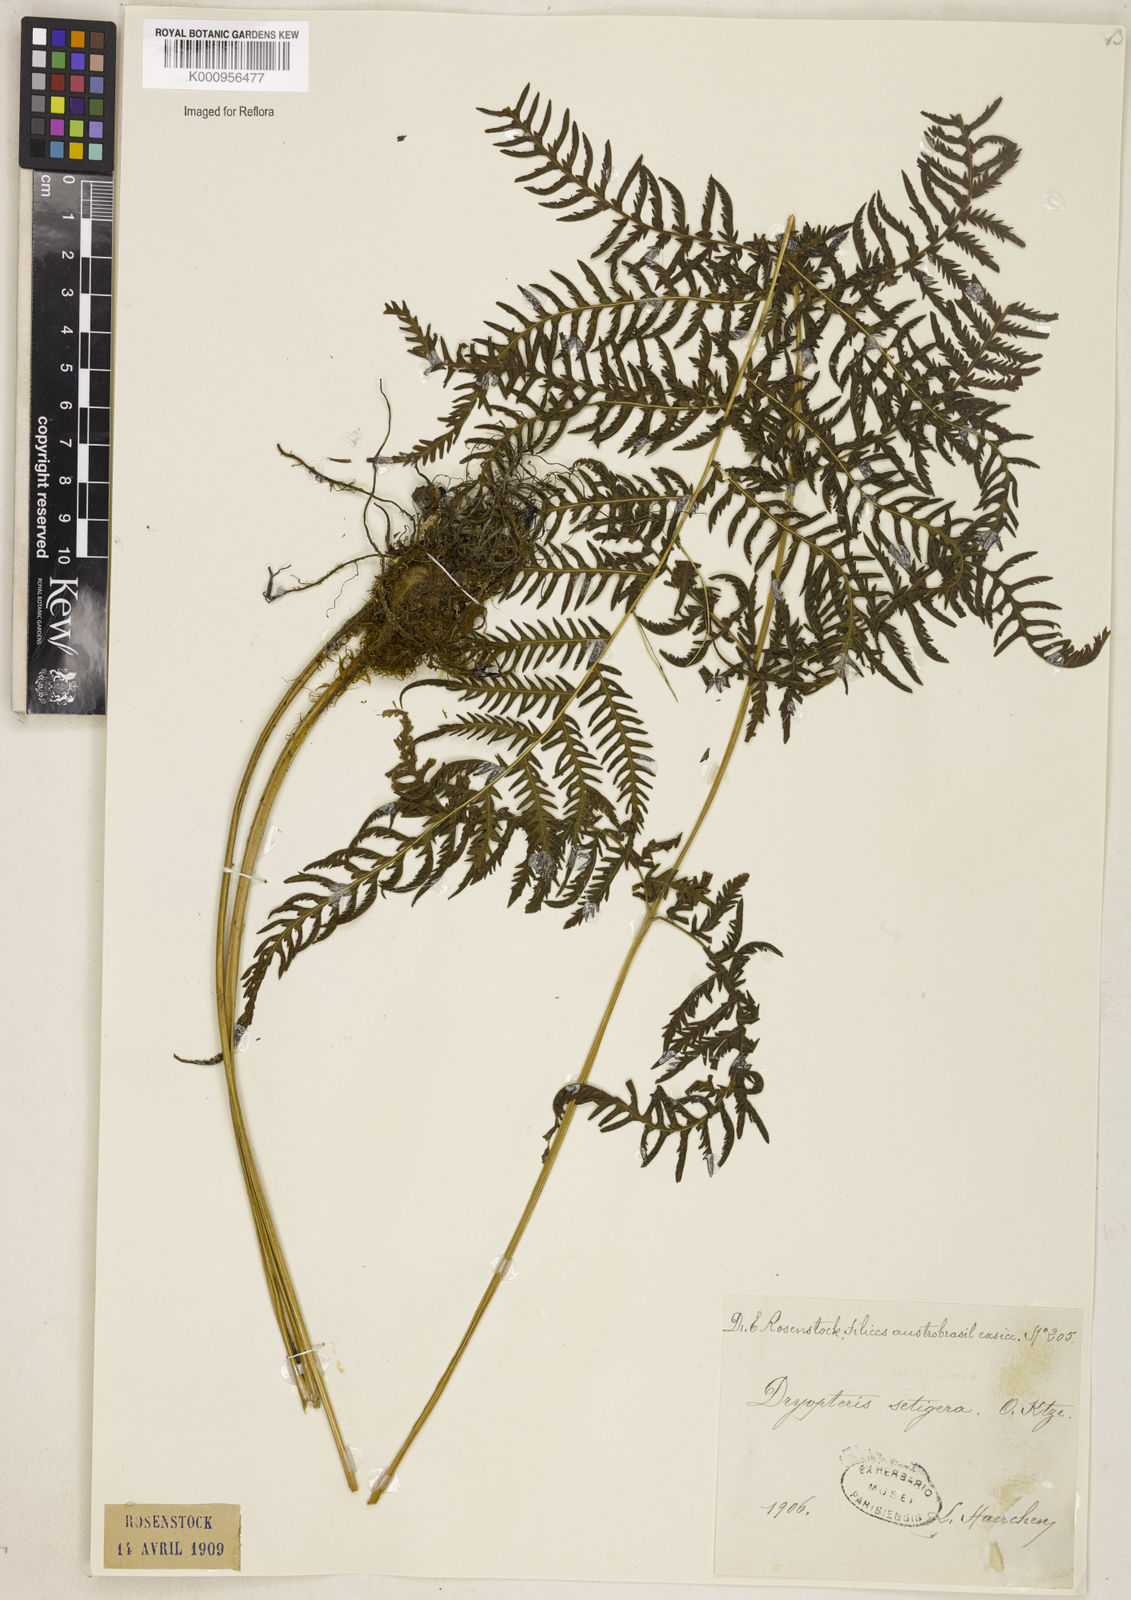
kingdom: Plantae
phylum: Tracheophyta
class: Polypodiopsida
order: Polypodiales
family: Thelypteridaceae
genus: Macrothelypteris
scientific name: Macrothelypteris torresiana
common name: Swordfern
